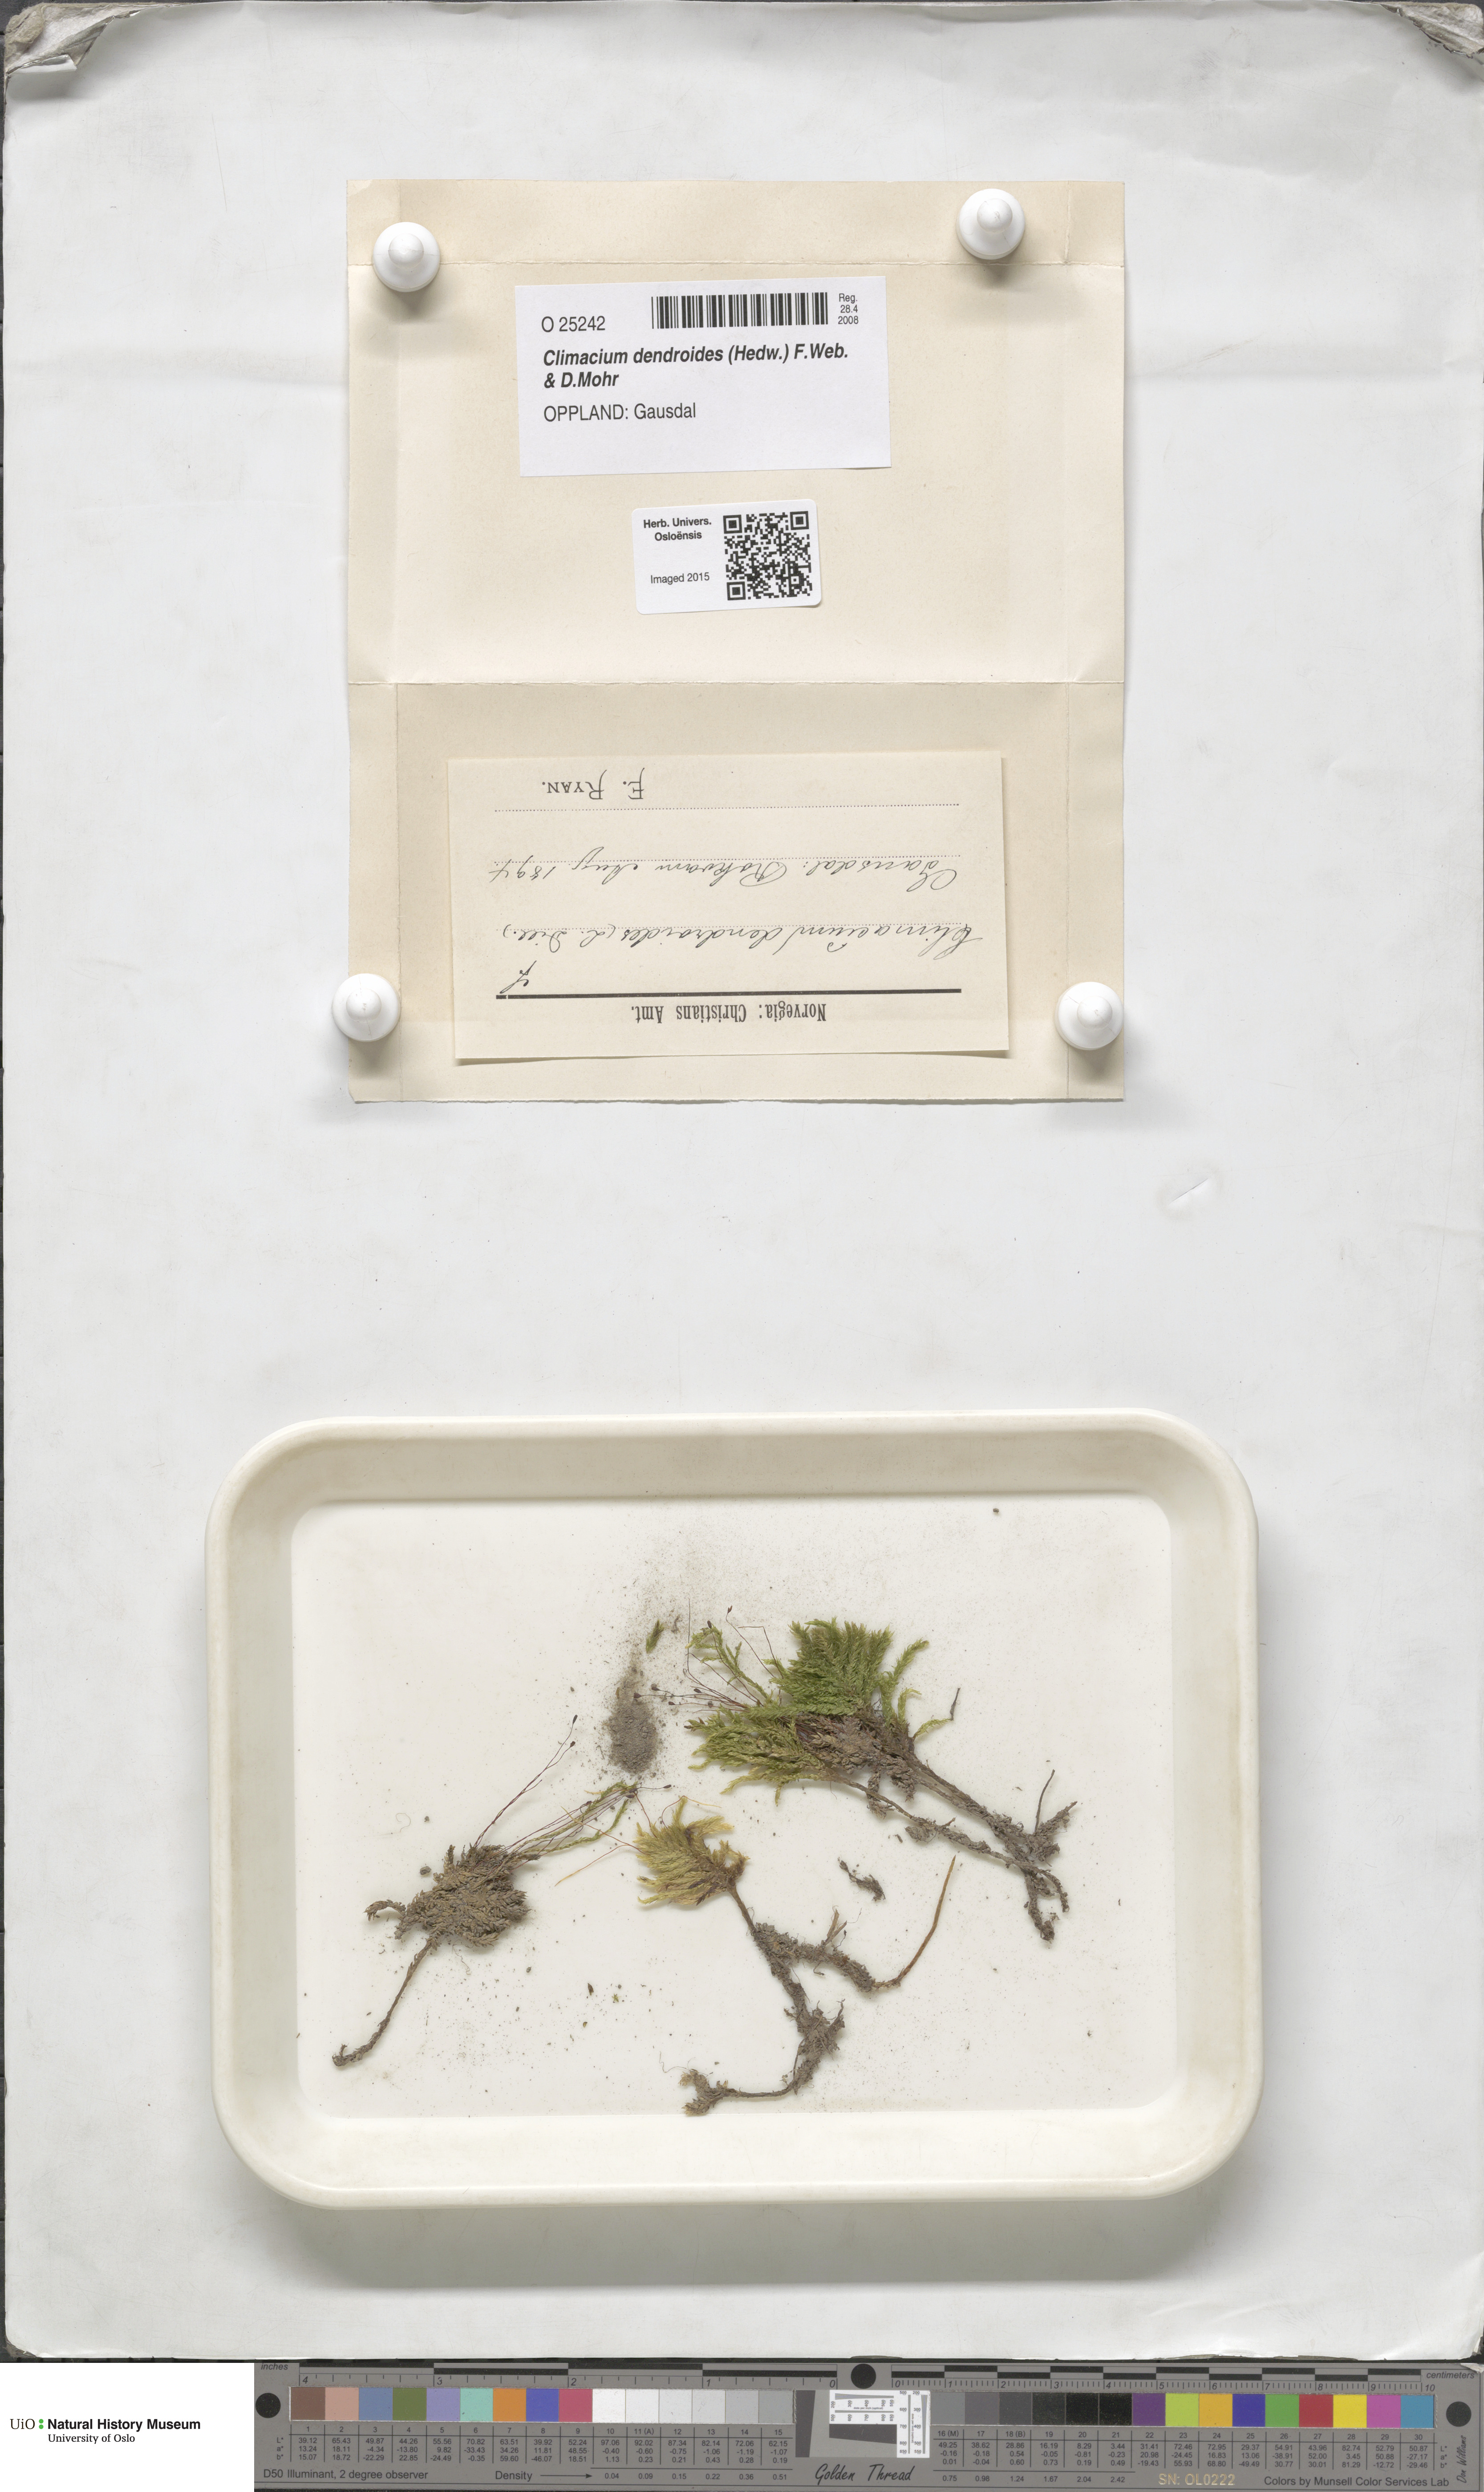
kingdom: Plantae
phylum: Bryophyta
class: Bryopsida
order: Hypnales
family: Climaciaceae
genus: Climacium
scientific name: Climacium dendroides
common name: Northern tree moss
